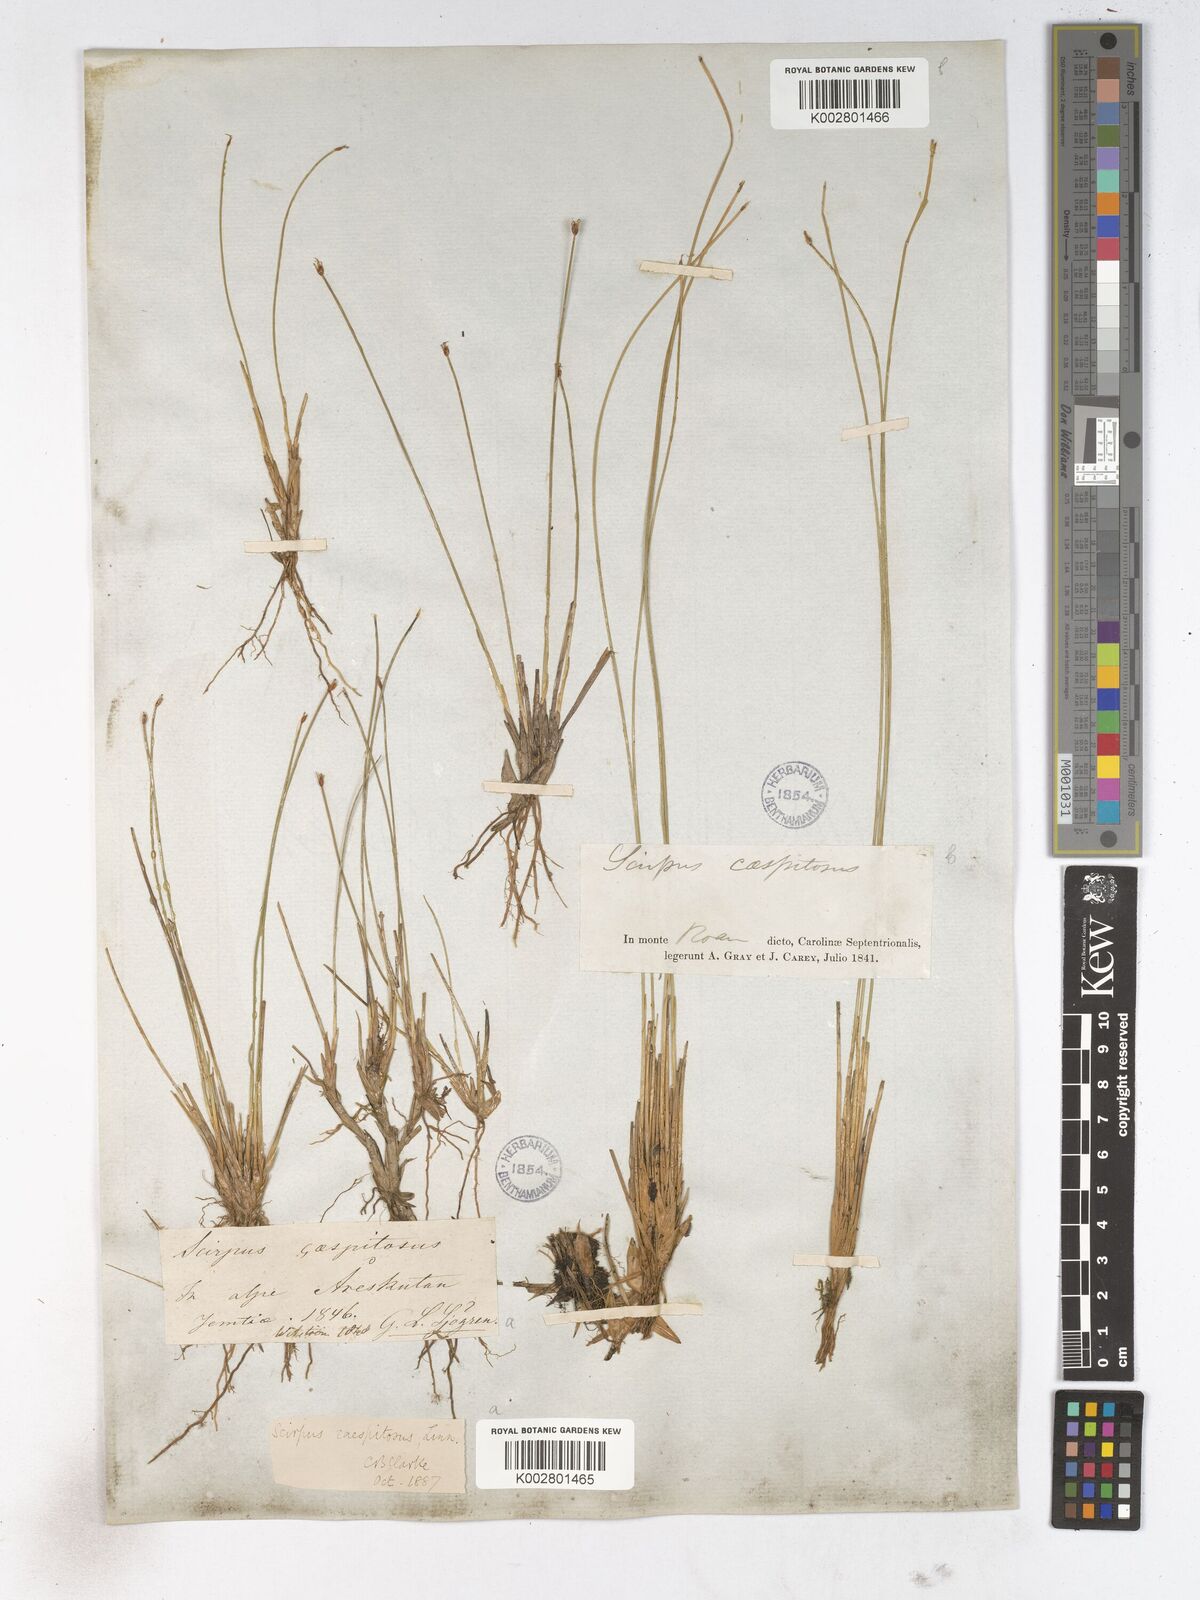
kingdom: Plantae
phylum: Tracheophyta
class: Liliopsida
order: Poales
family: Cyperaceae
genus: Trichophorum
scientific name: Trichophorum cespitosum
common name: Cespitose bulrush
